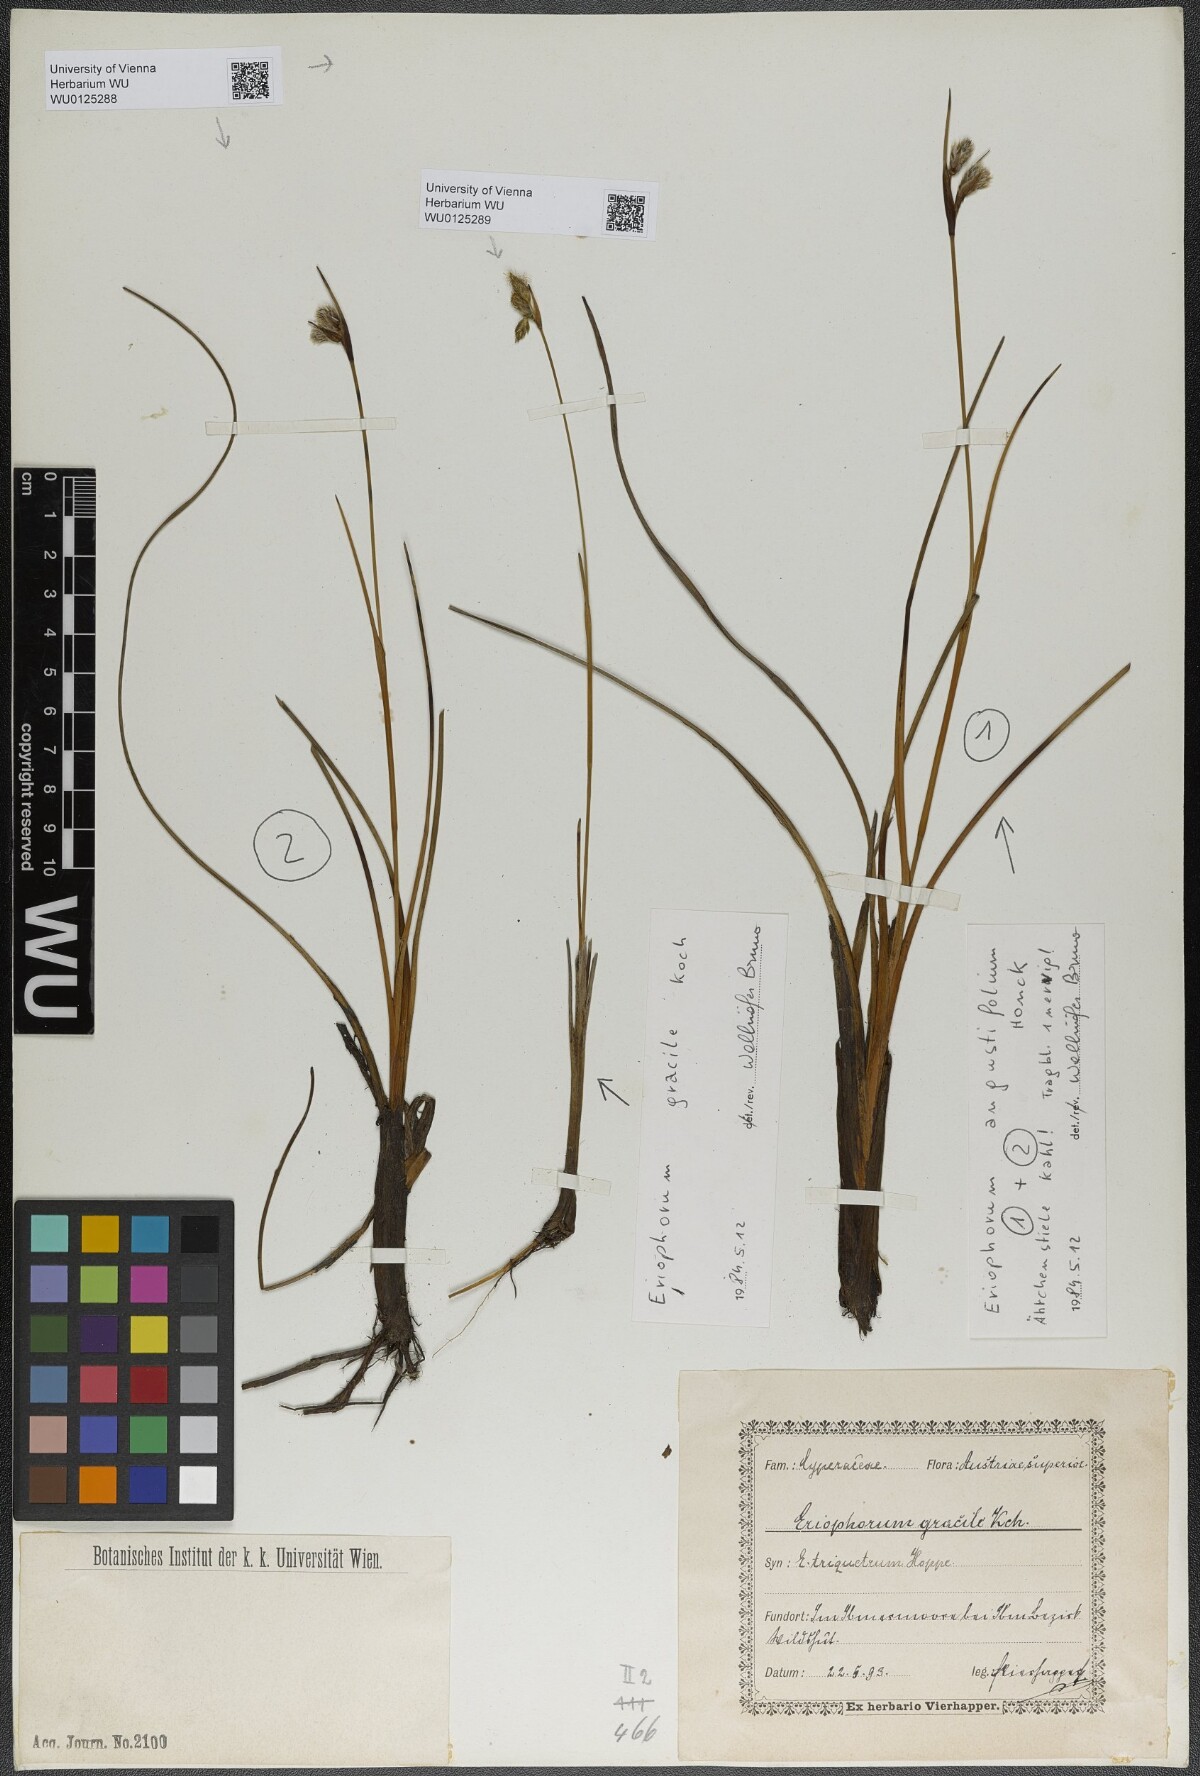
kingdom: Plantae
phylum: Tracheophyta
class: Liliopsida
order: Poales
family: Cyperaceae
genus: Eriophorum
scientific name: Eriophorum gracile
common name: Slender cottongrass
